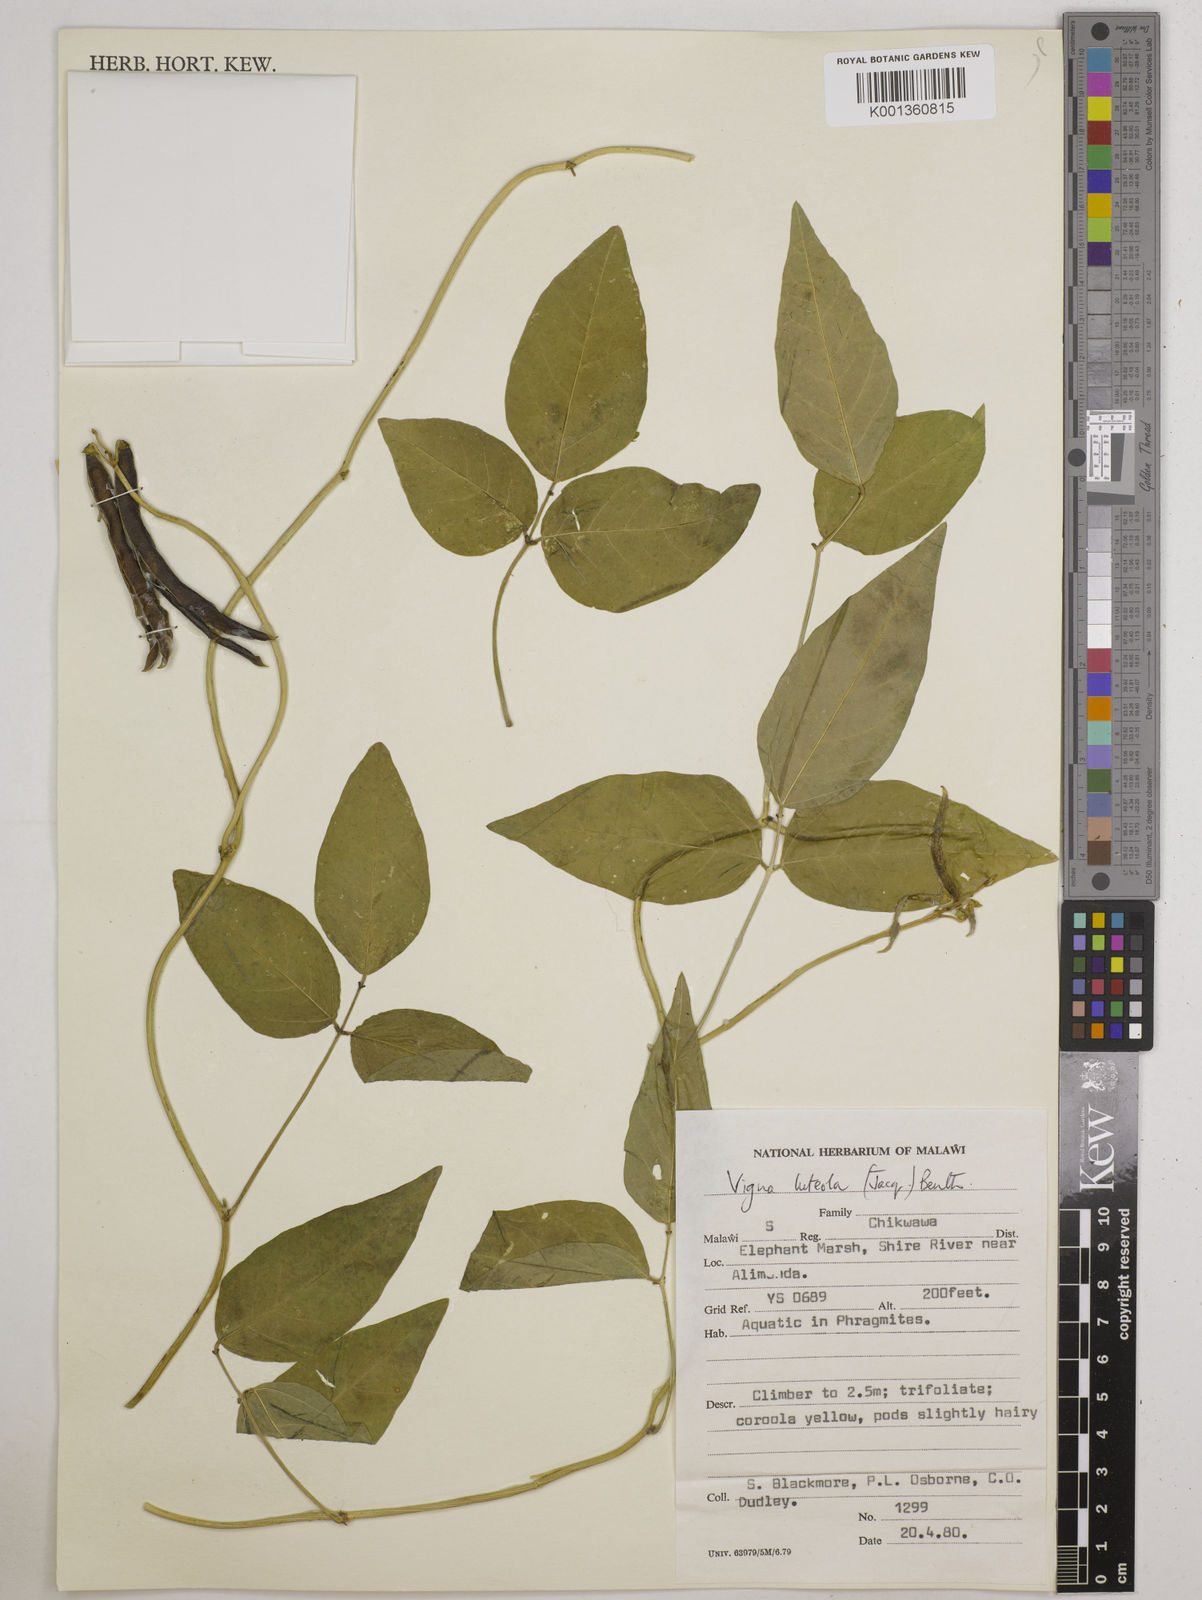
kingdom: Plantae
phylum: Tracheophyta
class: Magnoliopsida
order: Fabales
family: Fabaceae
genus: Vigna
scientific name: Vigna luteola
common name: Hairypod cowpea
